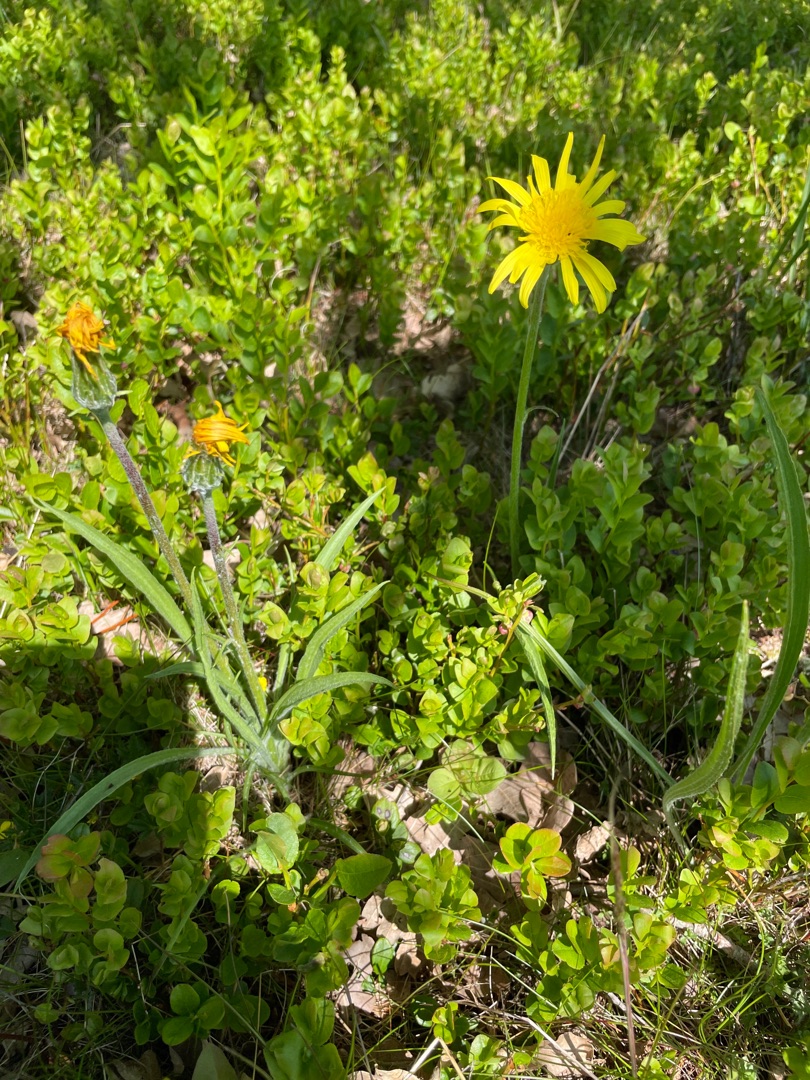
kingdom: Plantae
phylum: Tracheophyta
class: Magnoliopsida
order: Asterales
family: Asteraceae
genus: Scorzonera
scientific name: Scorzonera humilis
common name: Lav skorsoner
